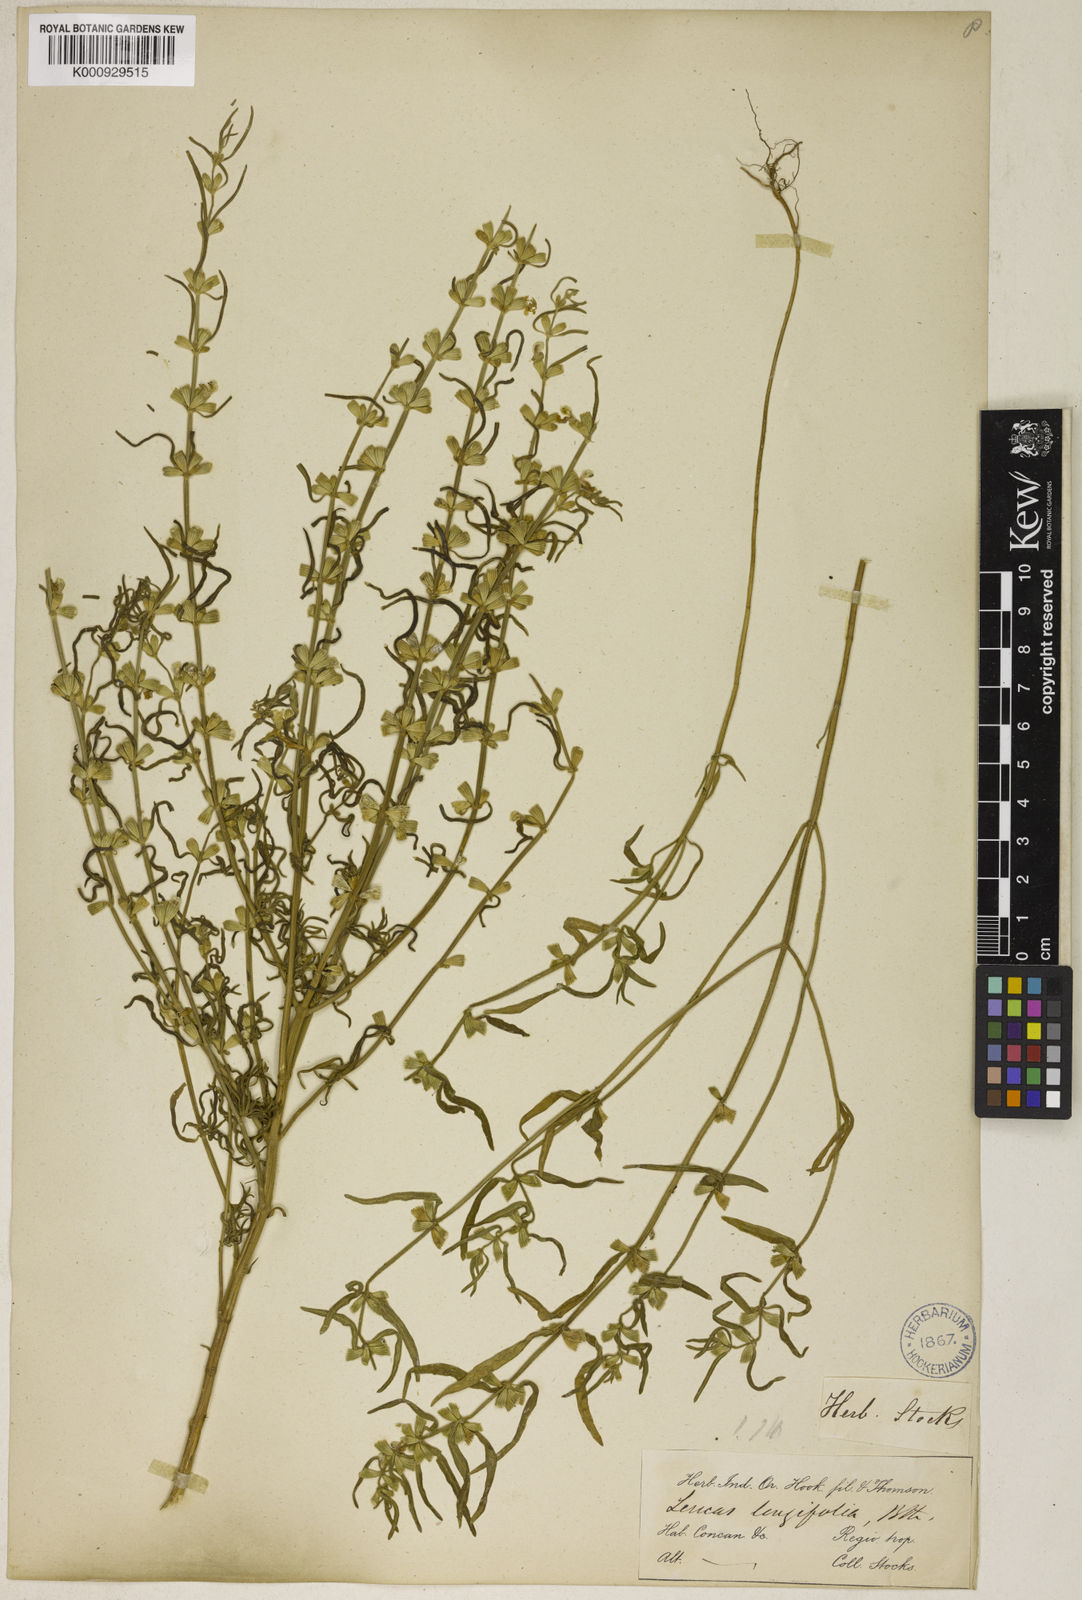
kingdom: Plantae
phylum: Tracheophyta
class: Magnoliopsida
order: Lamiales
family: Lamiaceae
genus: Leucas
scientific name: Leucas longifolia
